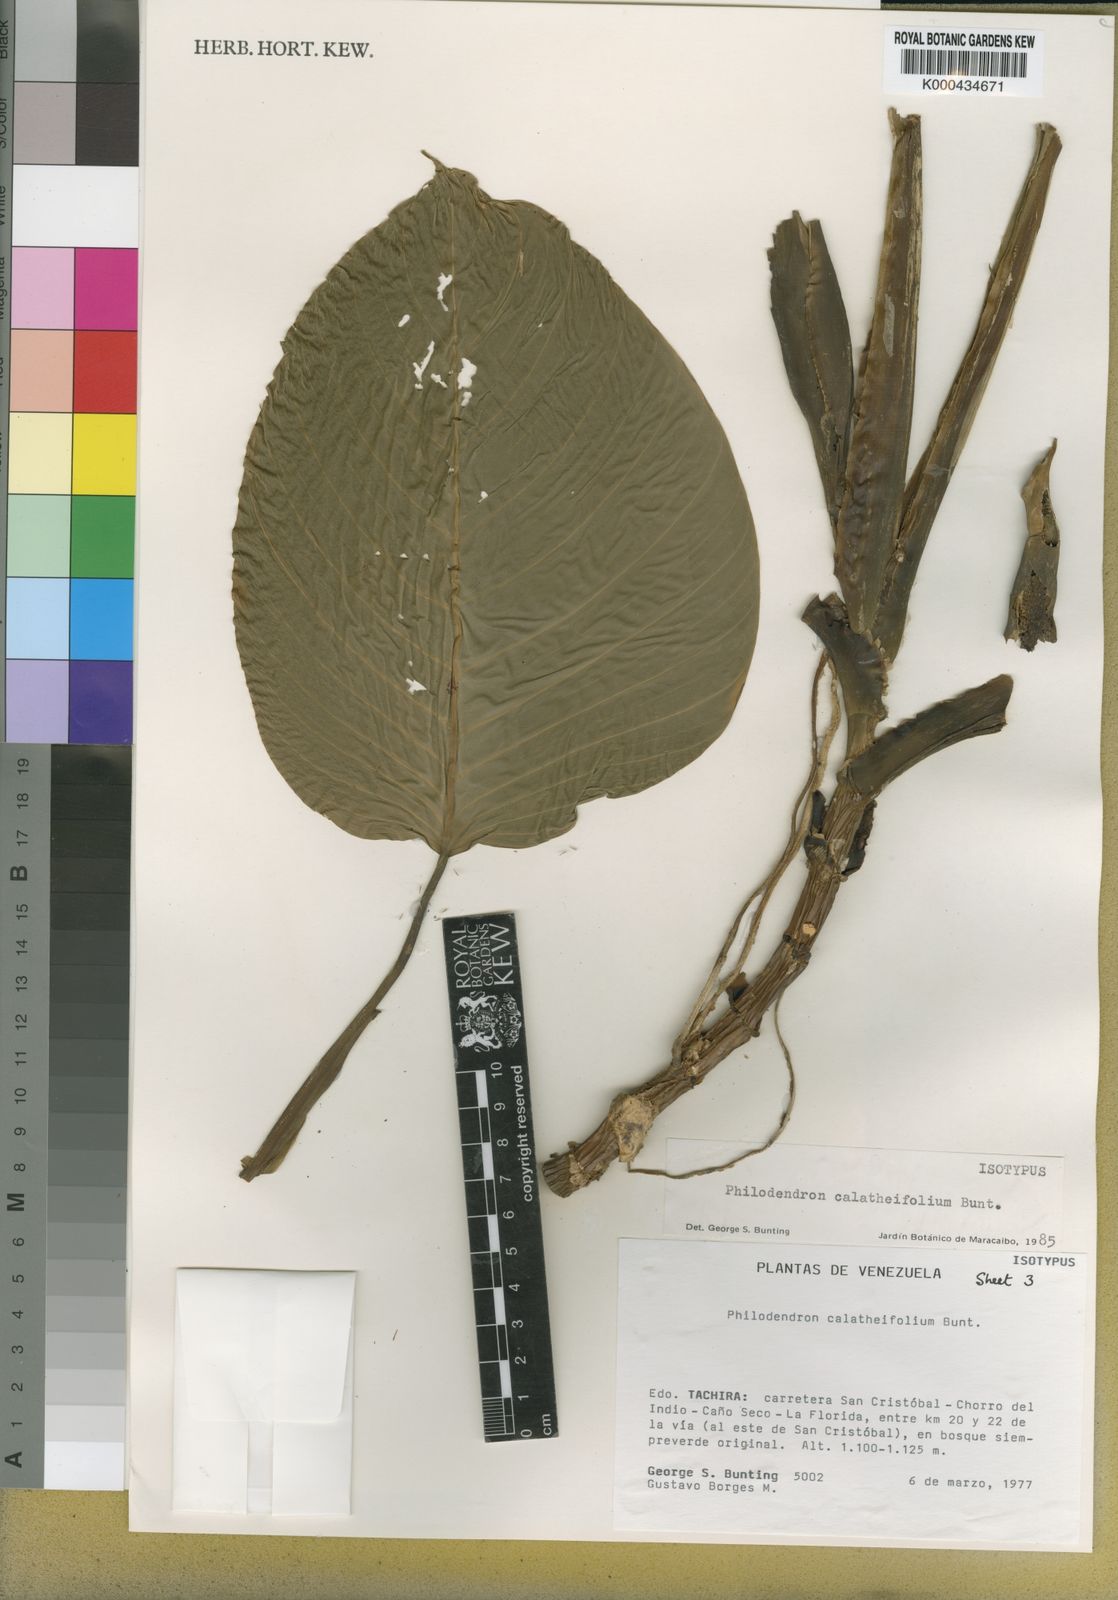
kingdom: Plantae
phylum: Tracheophyta
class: Liliopsida
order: Alismatales
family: Araceae
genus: Philodendron
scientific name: Philodendron calatheifolium
